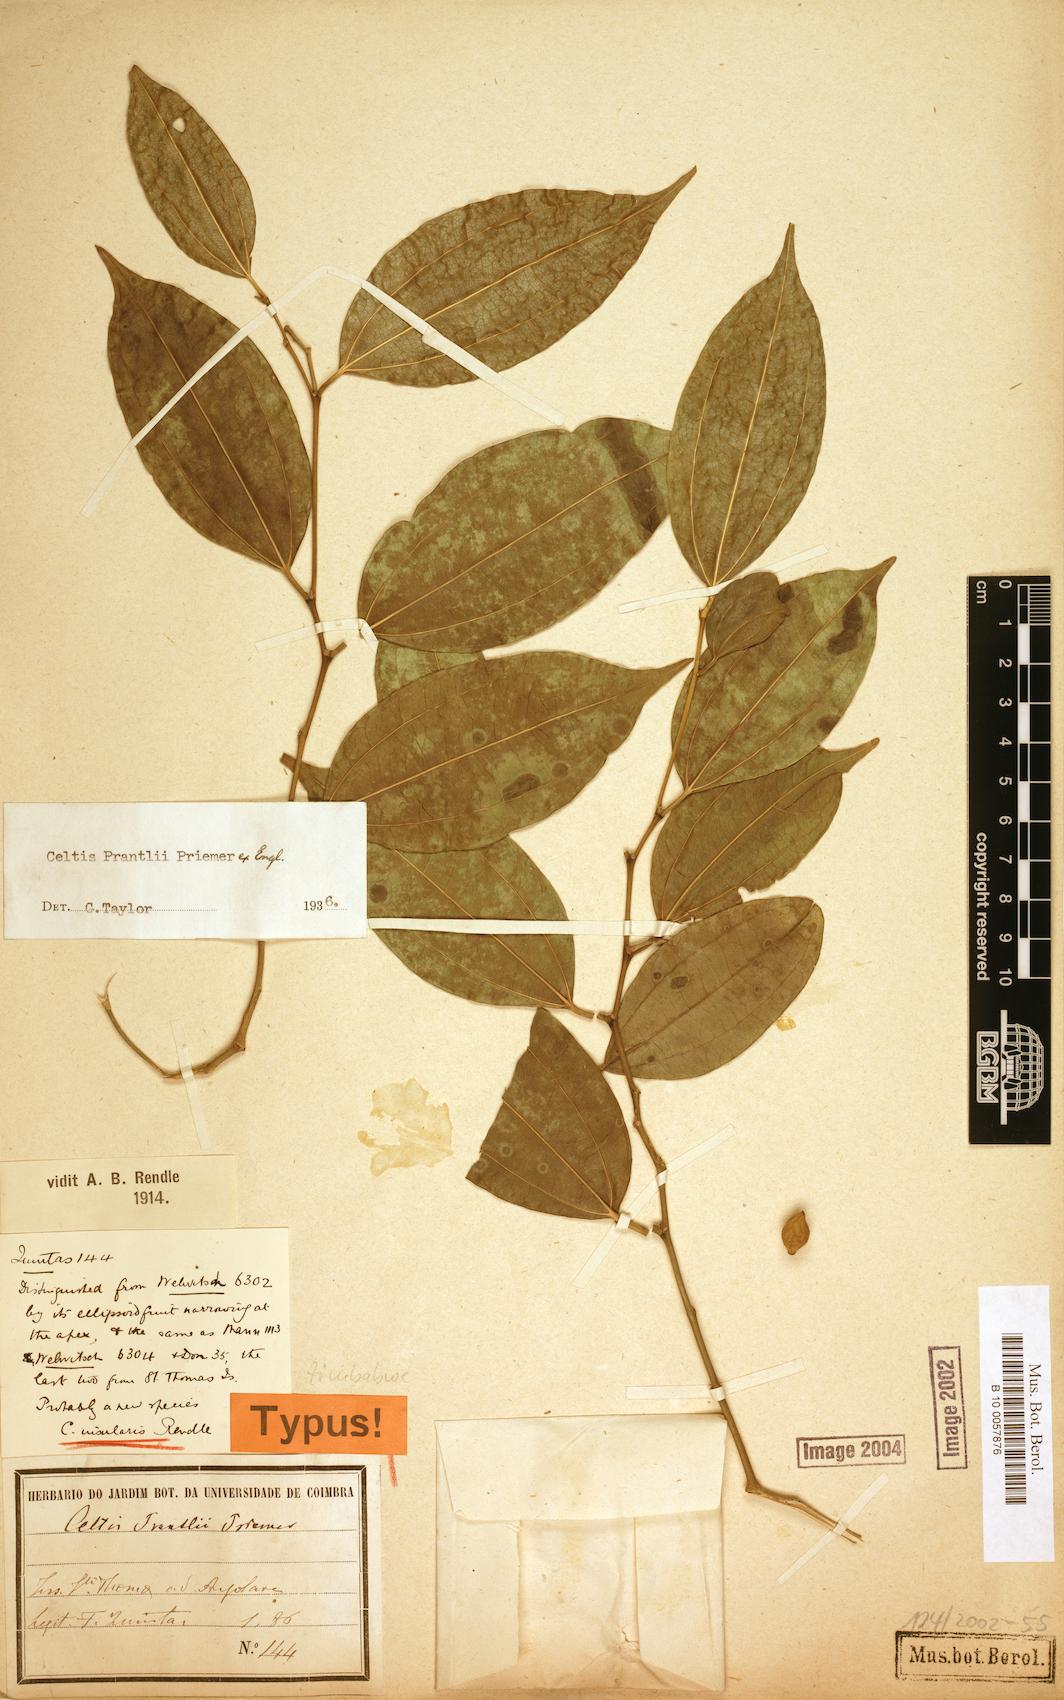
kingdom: Plantae
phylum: Tracheophyta
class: Magnoliopsida
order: Rosales
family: Cannabaceae
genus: Celtis
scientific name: Celtis philippensis
